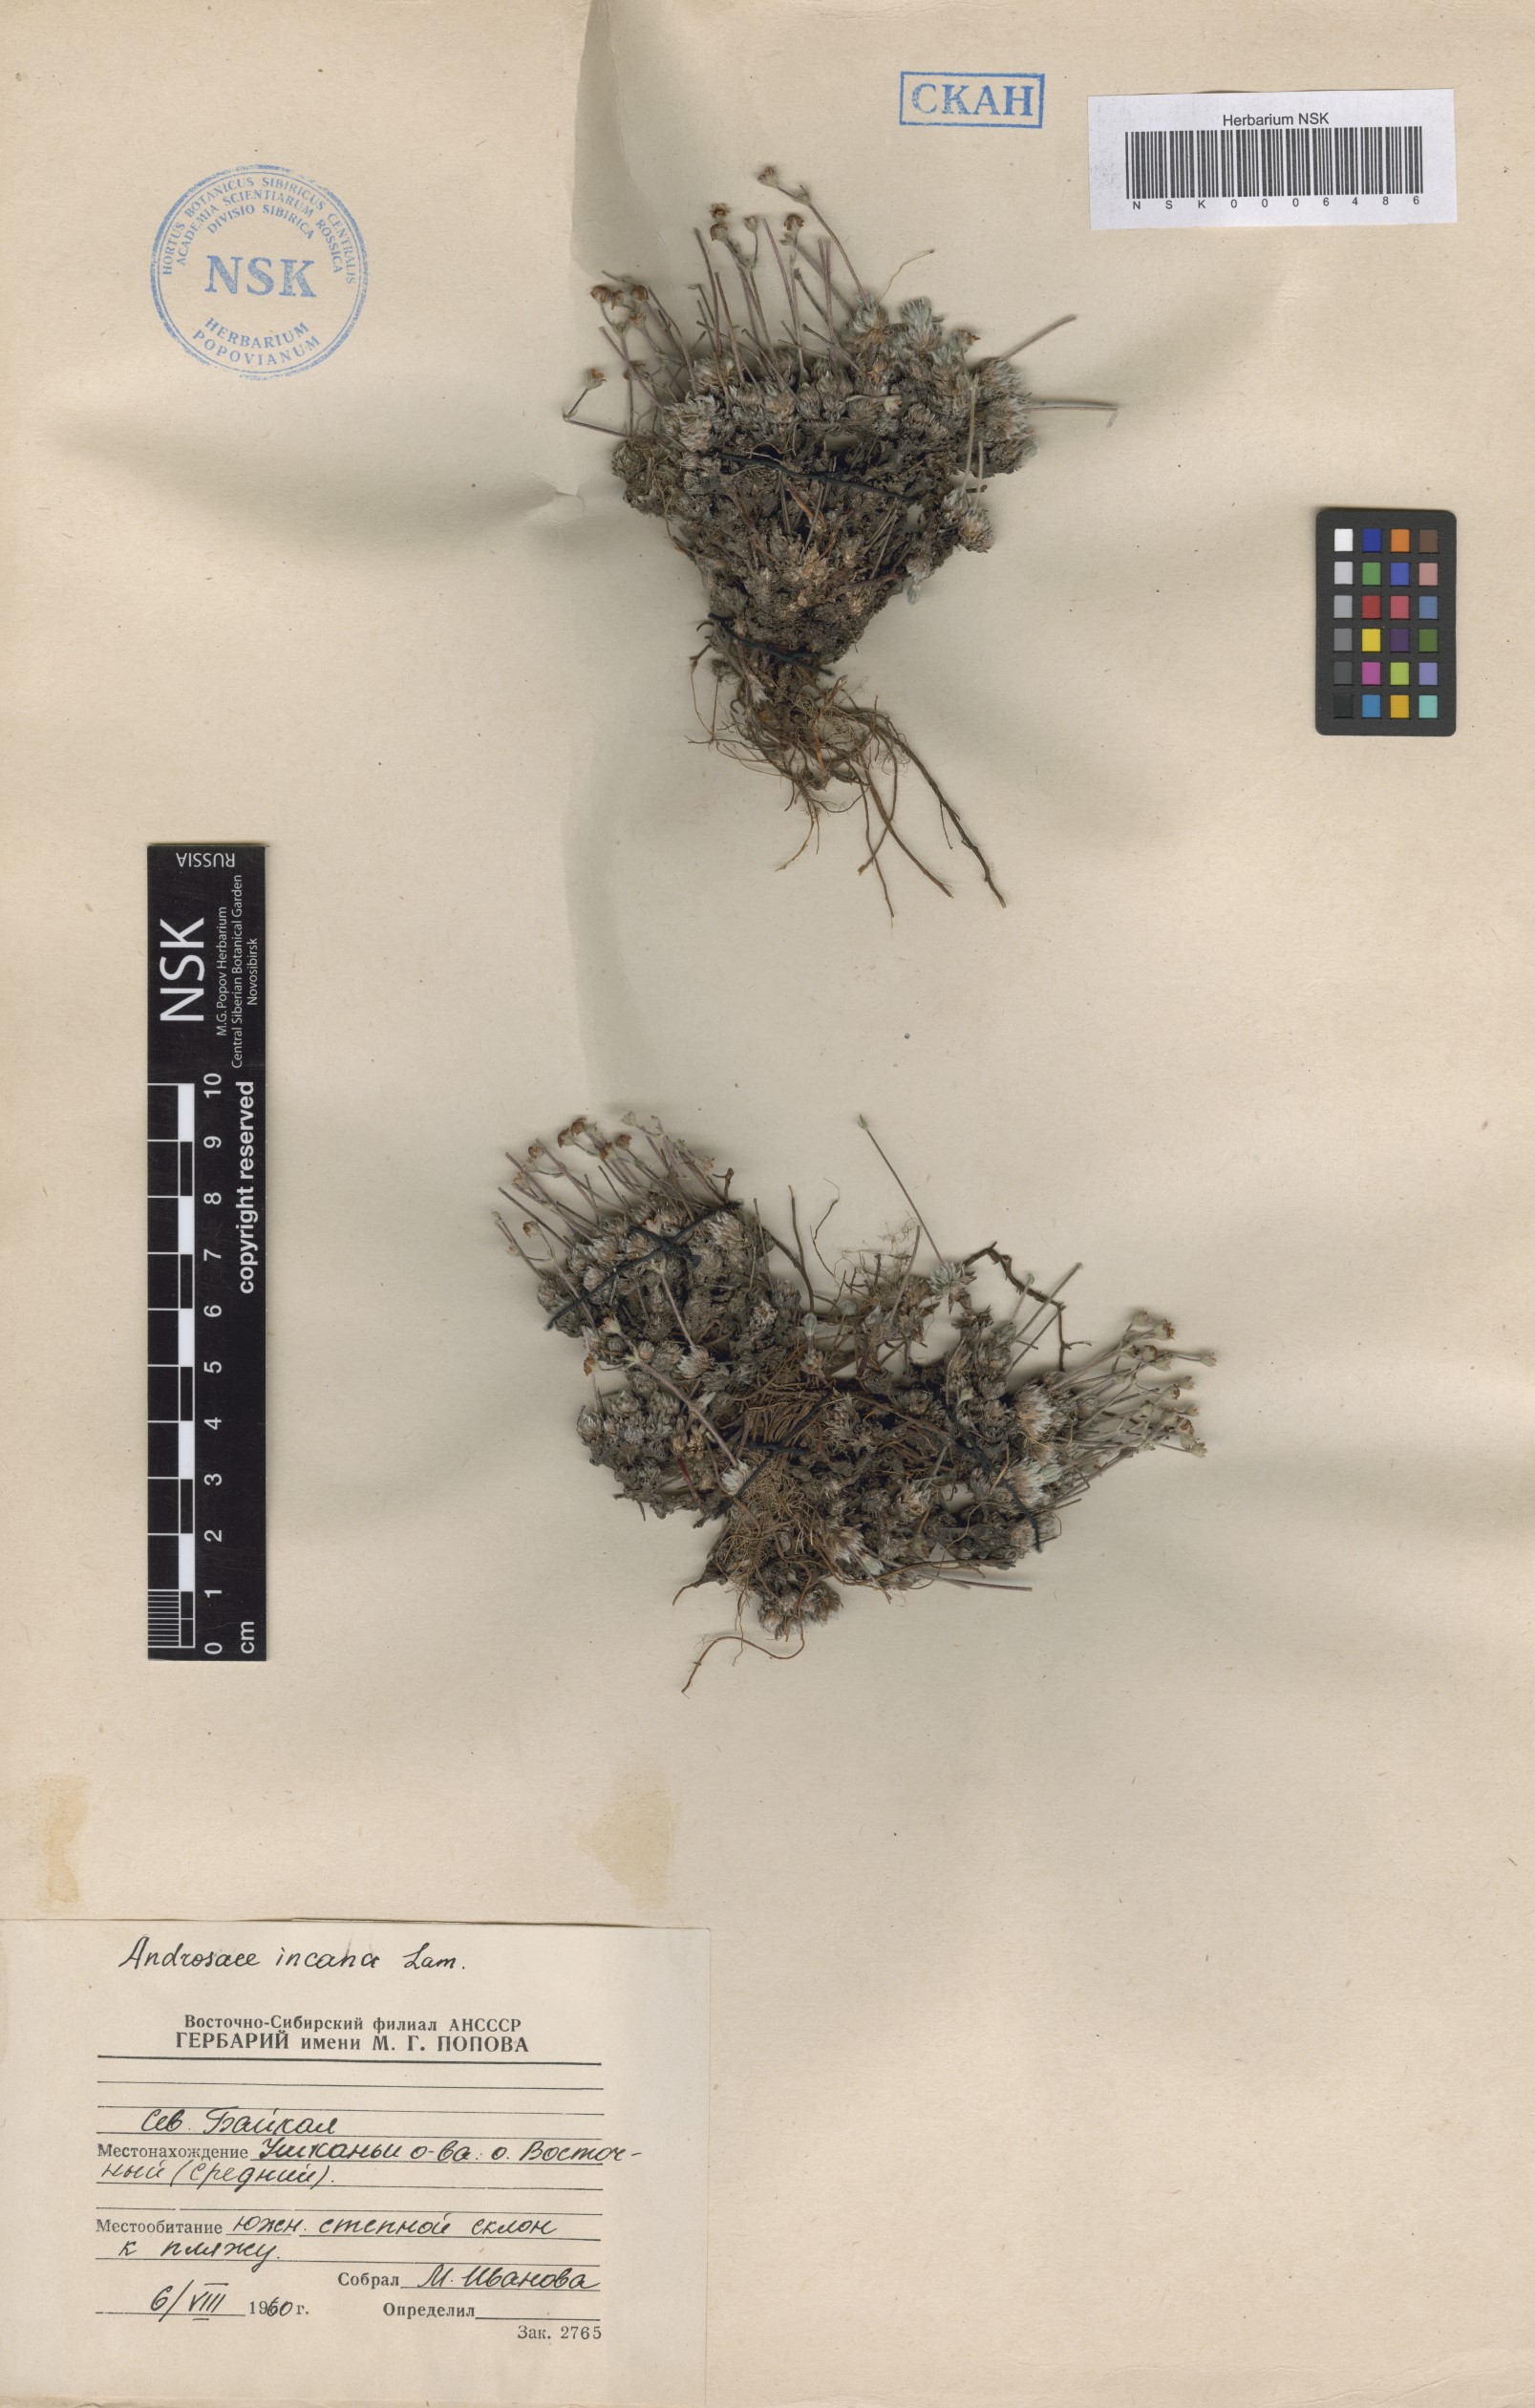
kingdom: Plantae
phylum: Tracheophyta
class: Magnoliopsida
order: Ericales
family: Primulaceae
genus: Androsace
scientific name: Androsace incana
